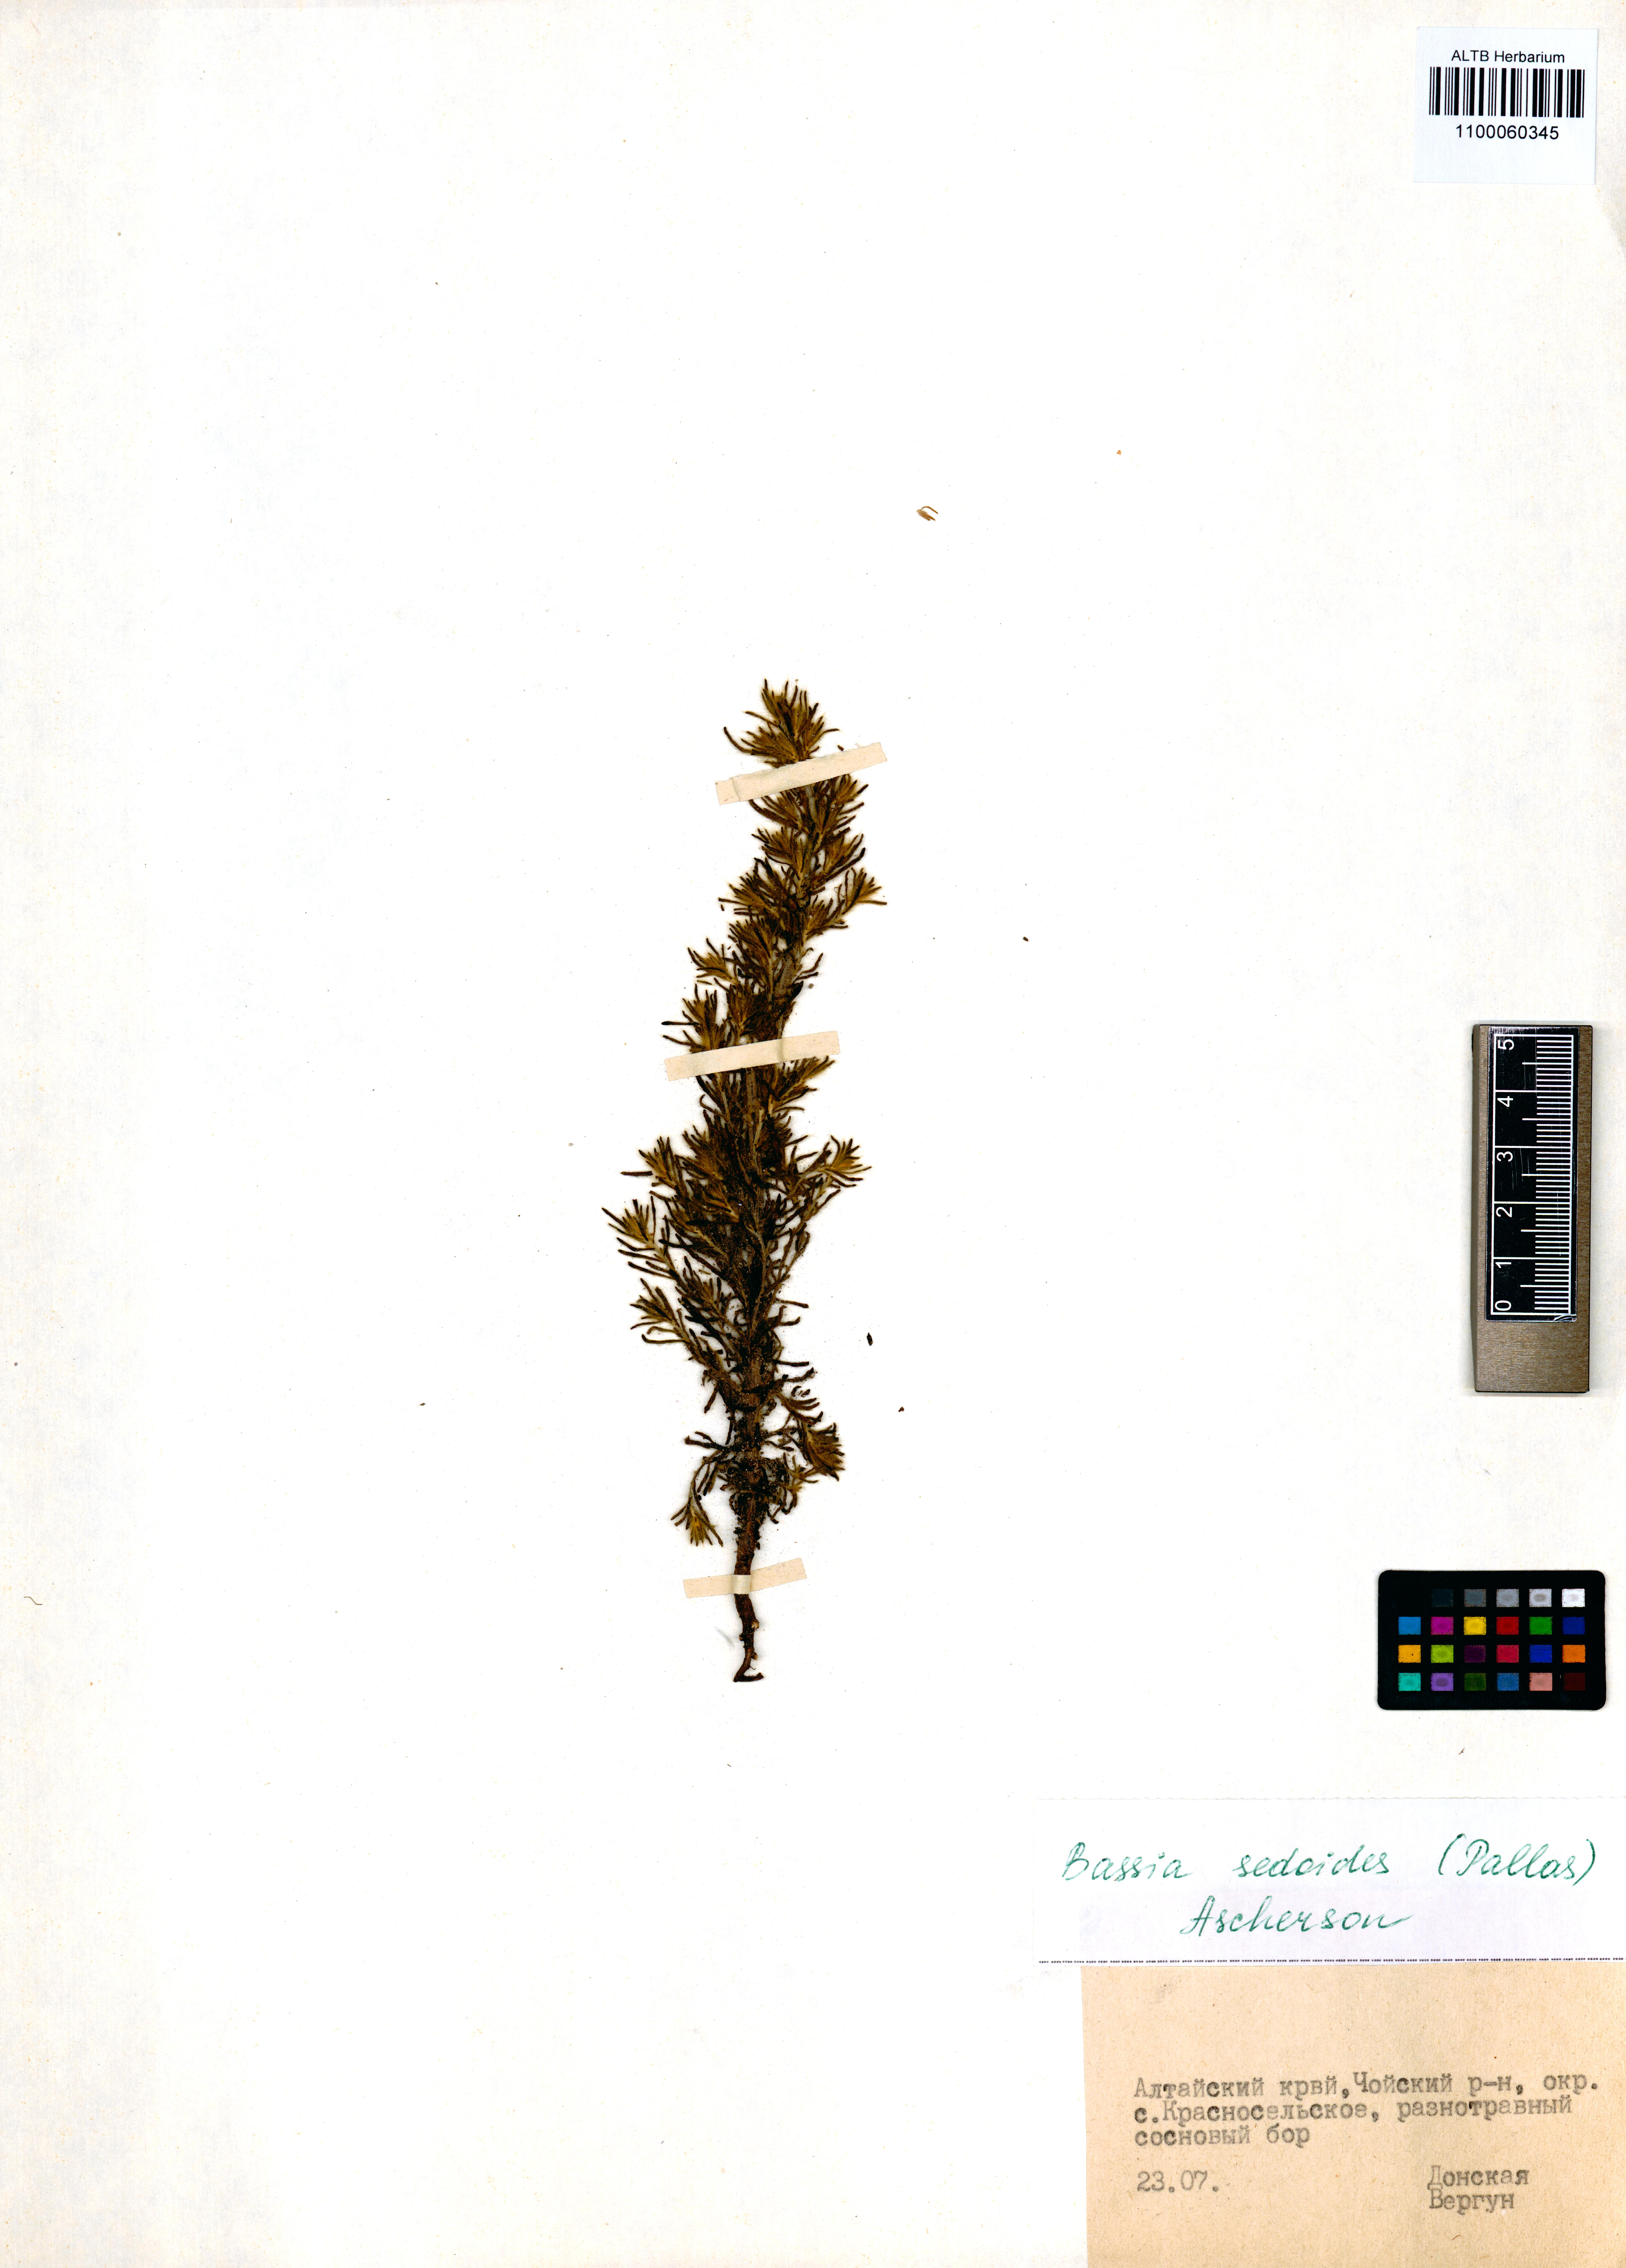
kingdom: Plantae
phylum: Tracheophyta
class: Magnoliopsida
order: Caryophyllales
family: Amaranthaceae
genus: Sedobassia
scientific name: Sedobassia sedoides
